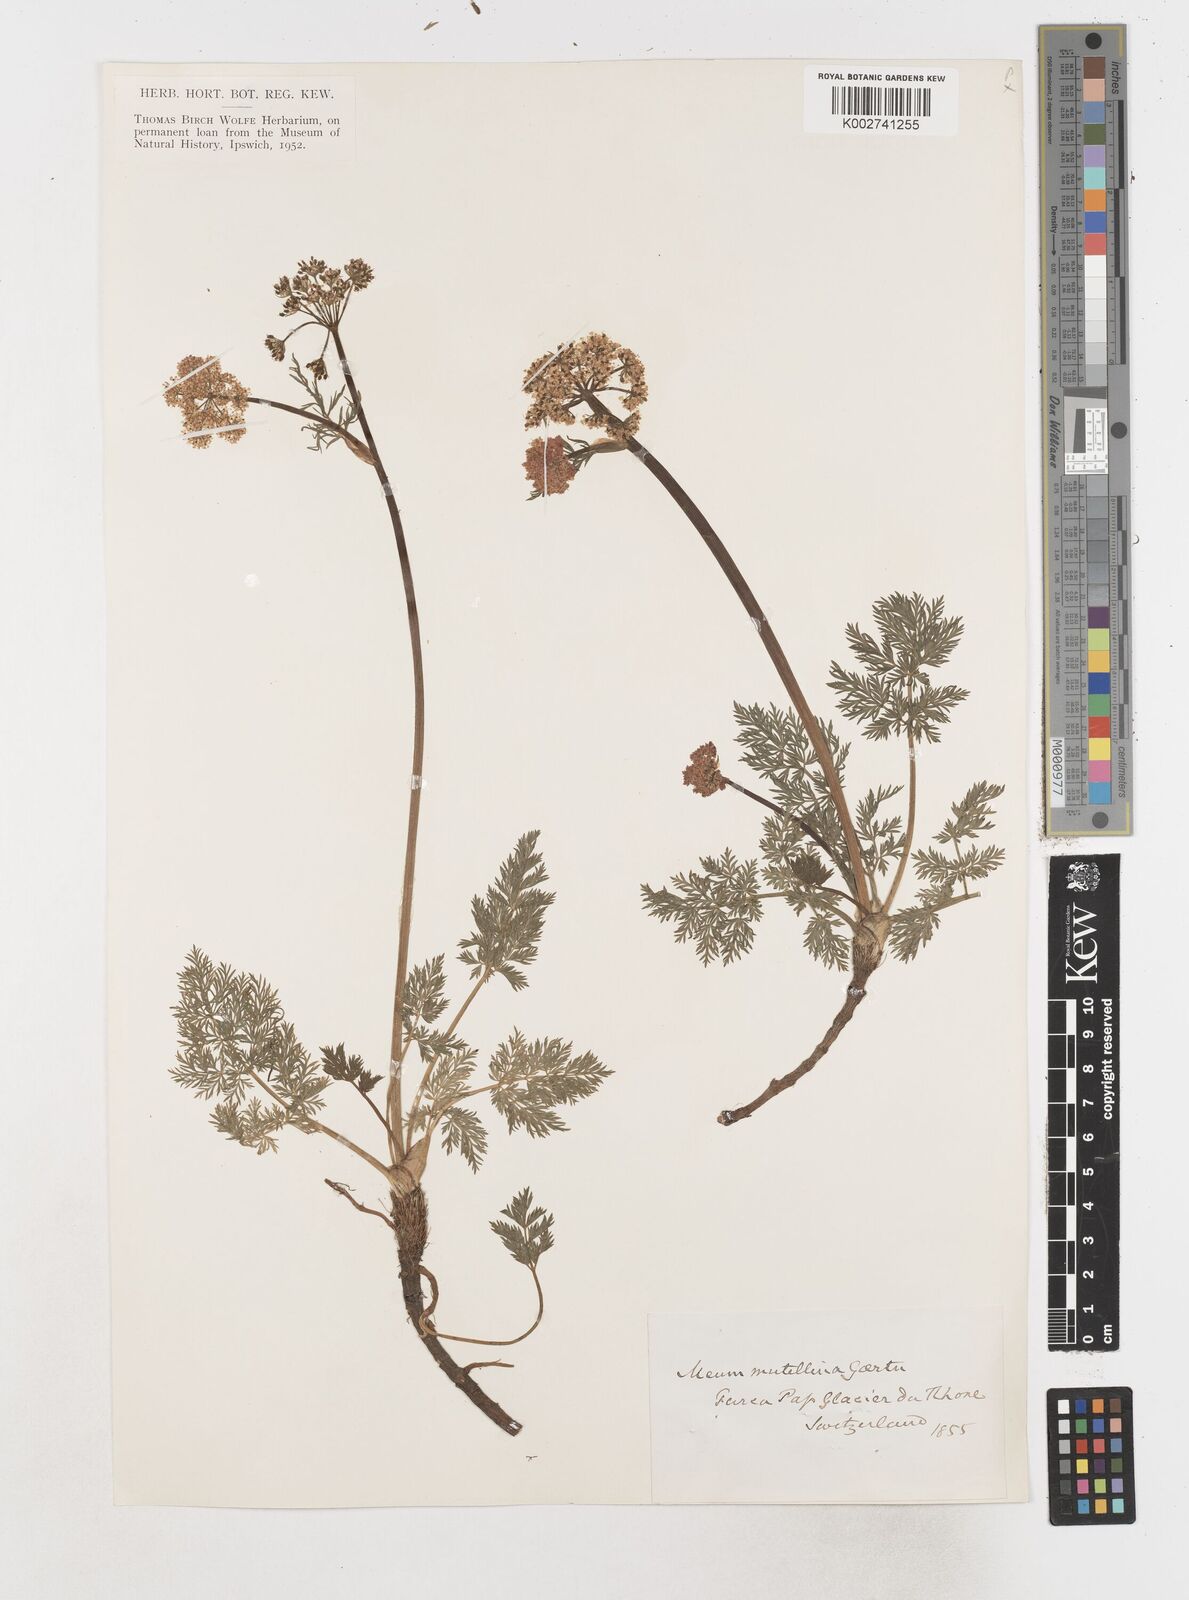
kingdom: Plantae
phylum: Tracheophyta
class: Magnoliopsida
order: Apiales
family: Apiaceae
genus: Mutellina
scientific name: Mutellina adonidifolia
